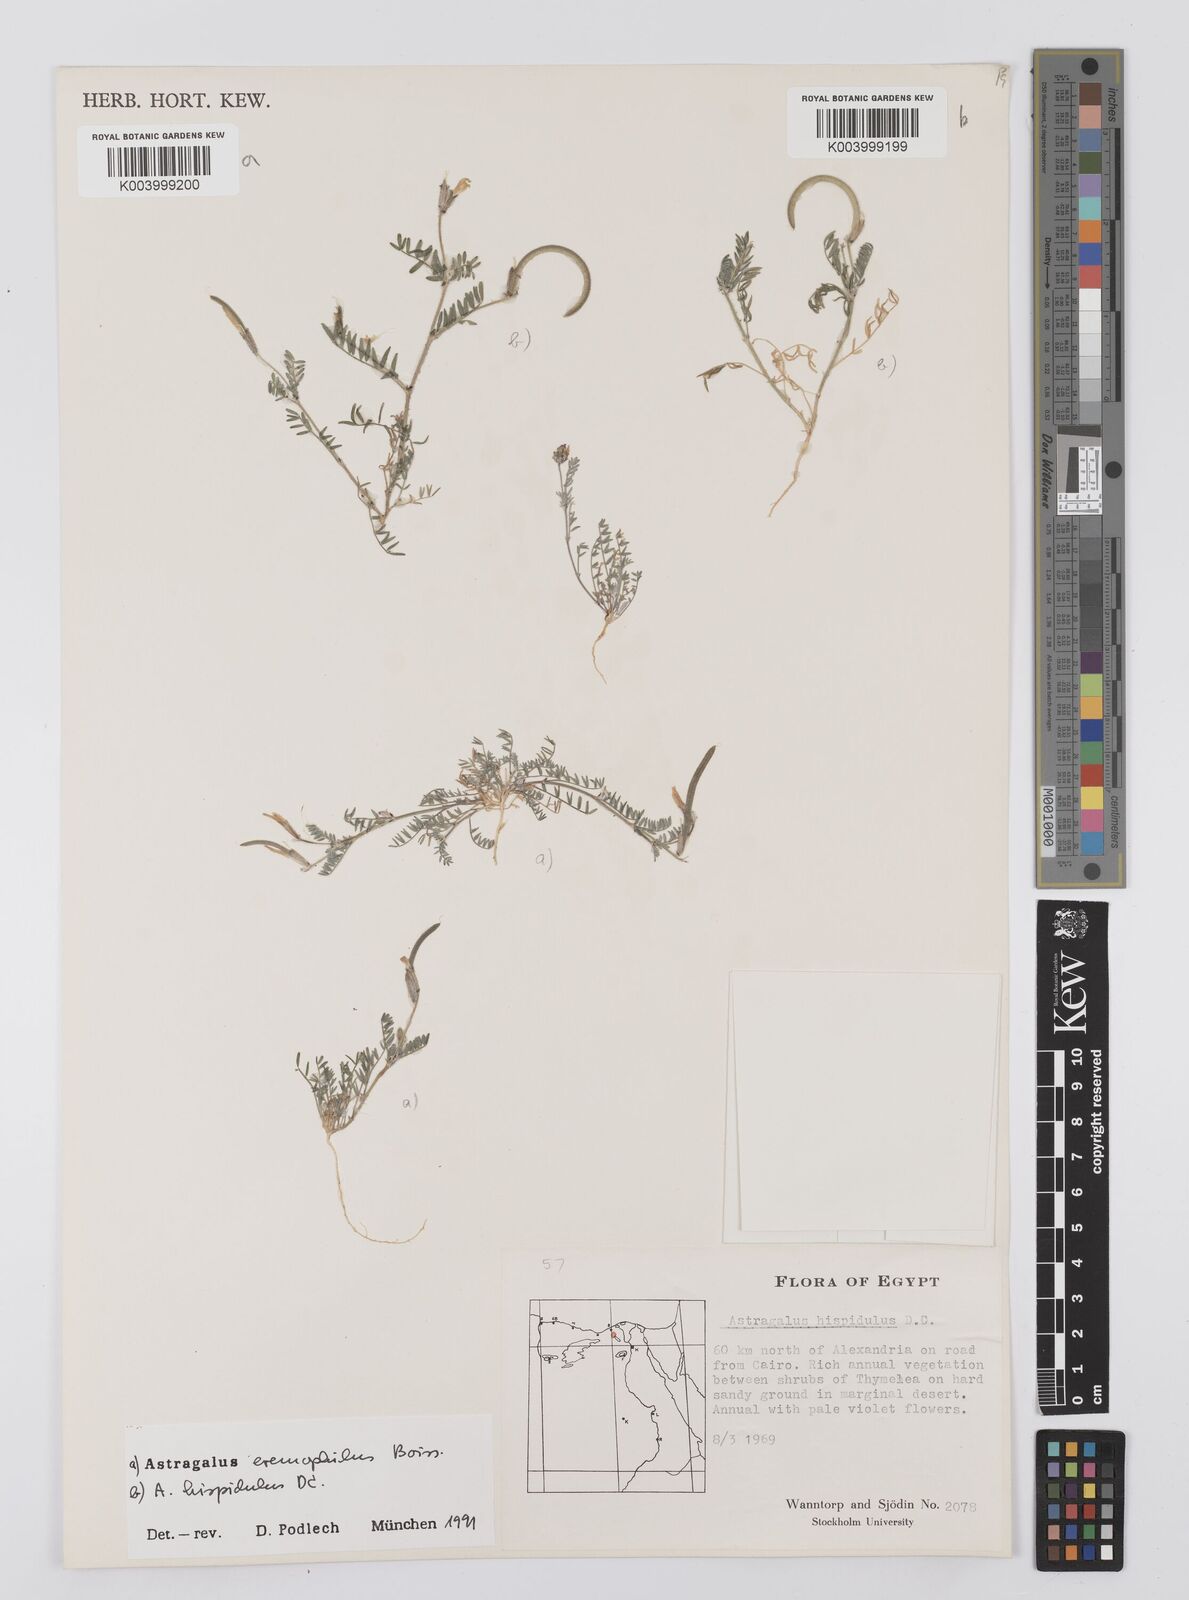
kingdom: Plantae
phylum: Tracheophyta
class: Magnoliopsida
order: Fabales
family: Fabaceae
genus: Astragalus
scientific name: Astragalus hispidulus
